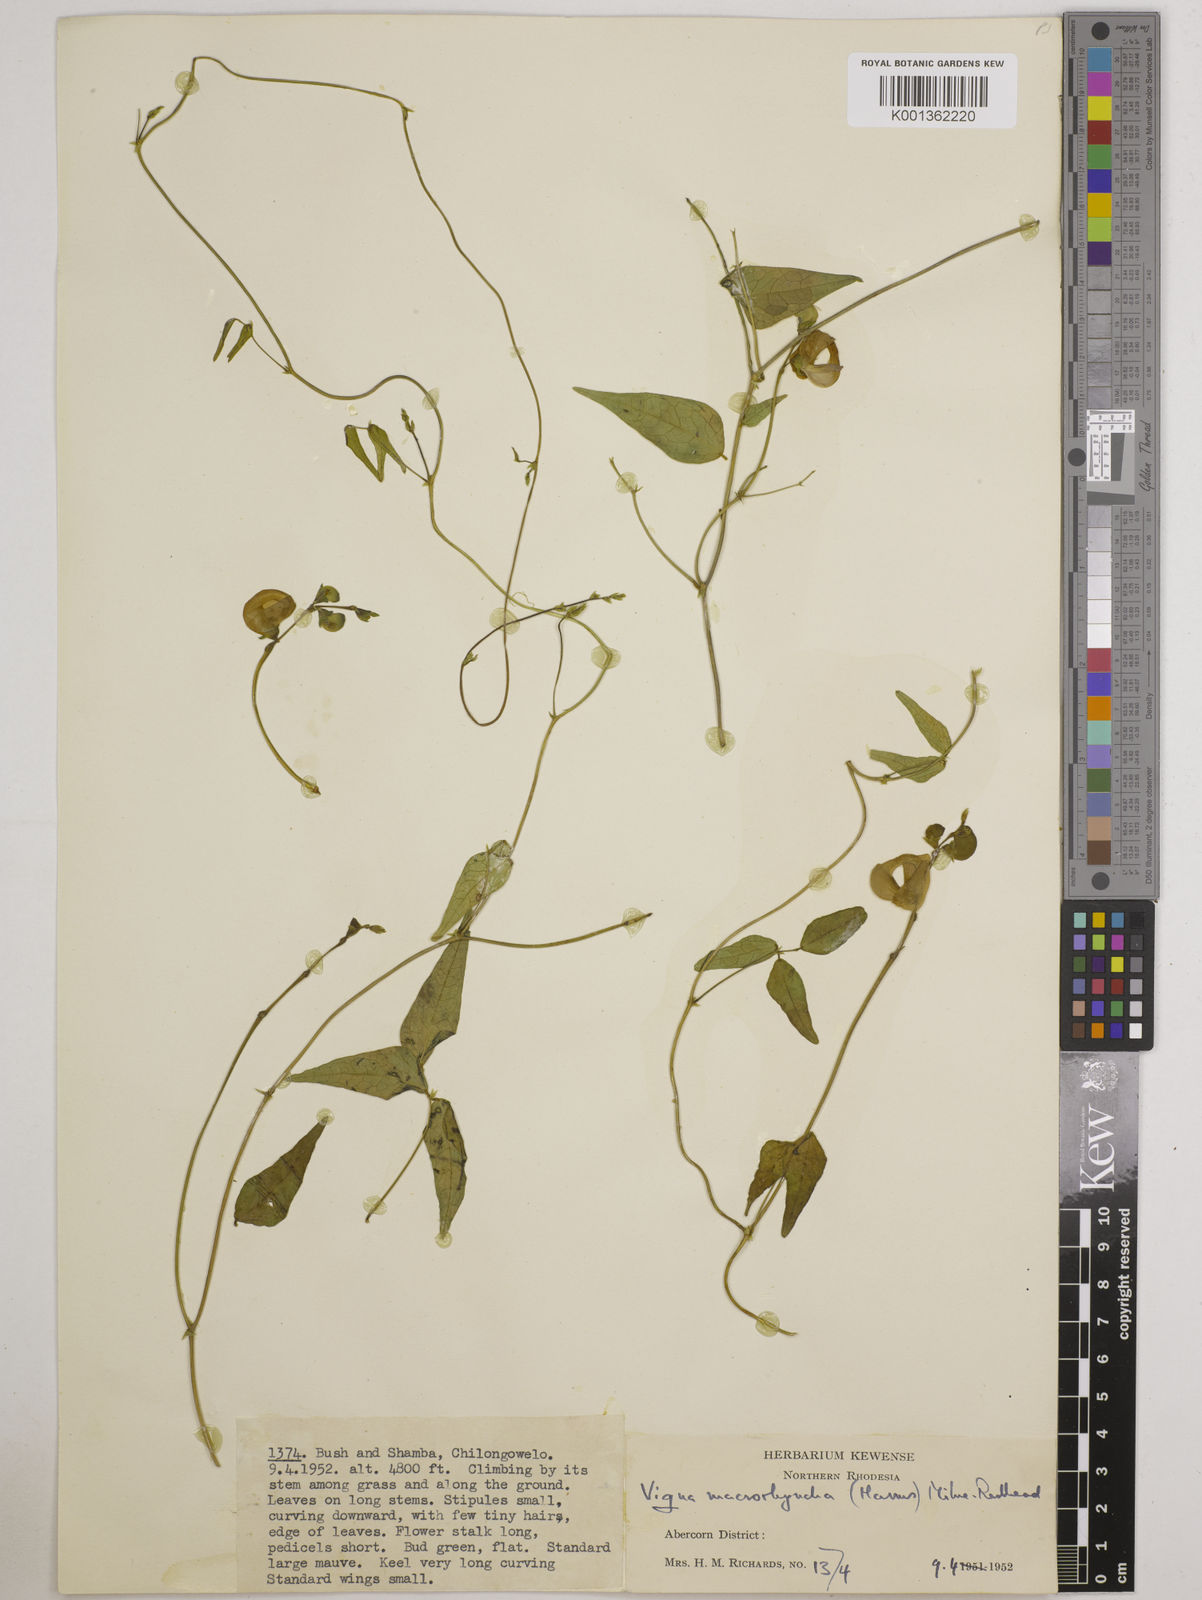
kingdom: Plantae
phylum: Tracheophyta
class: Magnoliopsida
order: Fabales
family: Fabaceae
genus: Wajira
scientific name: Wajira grahamiana
